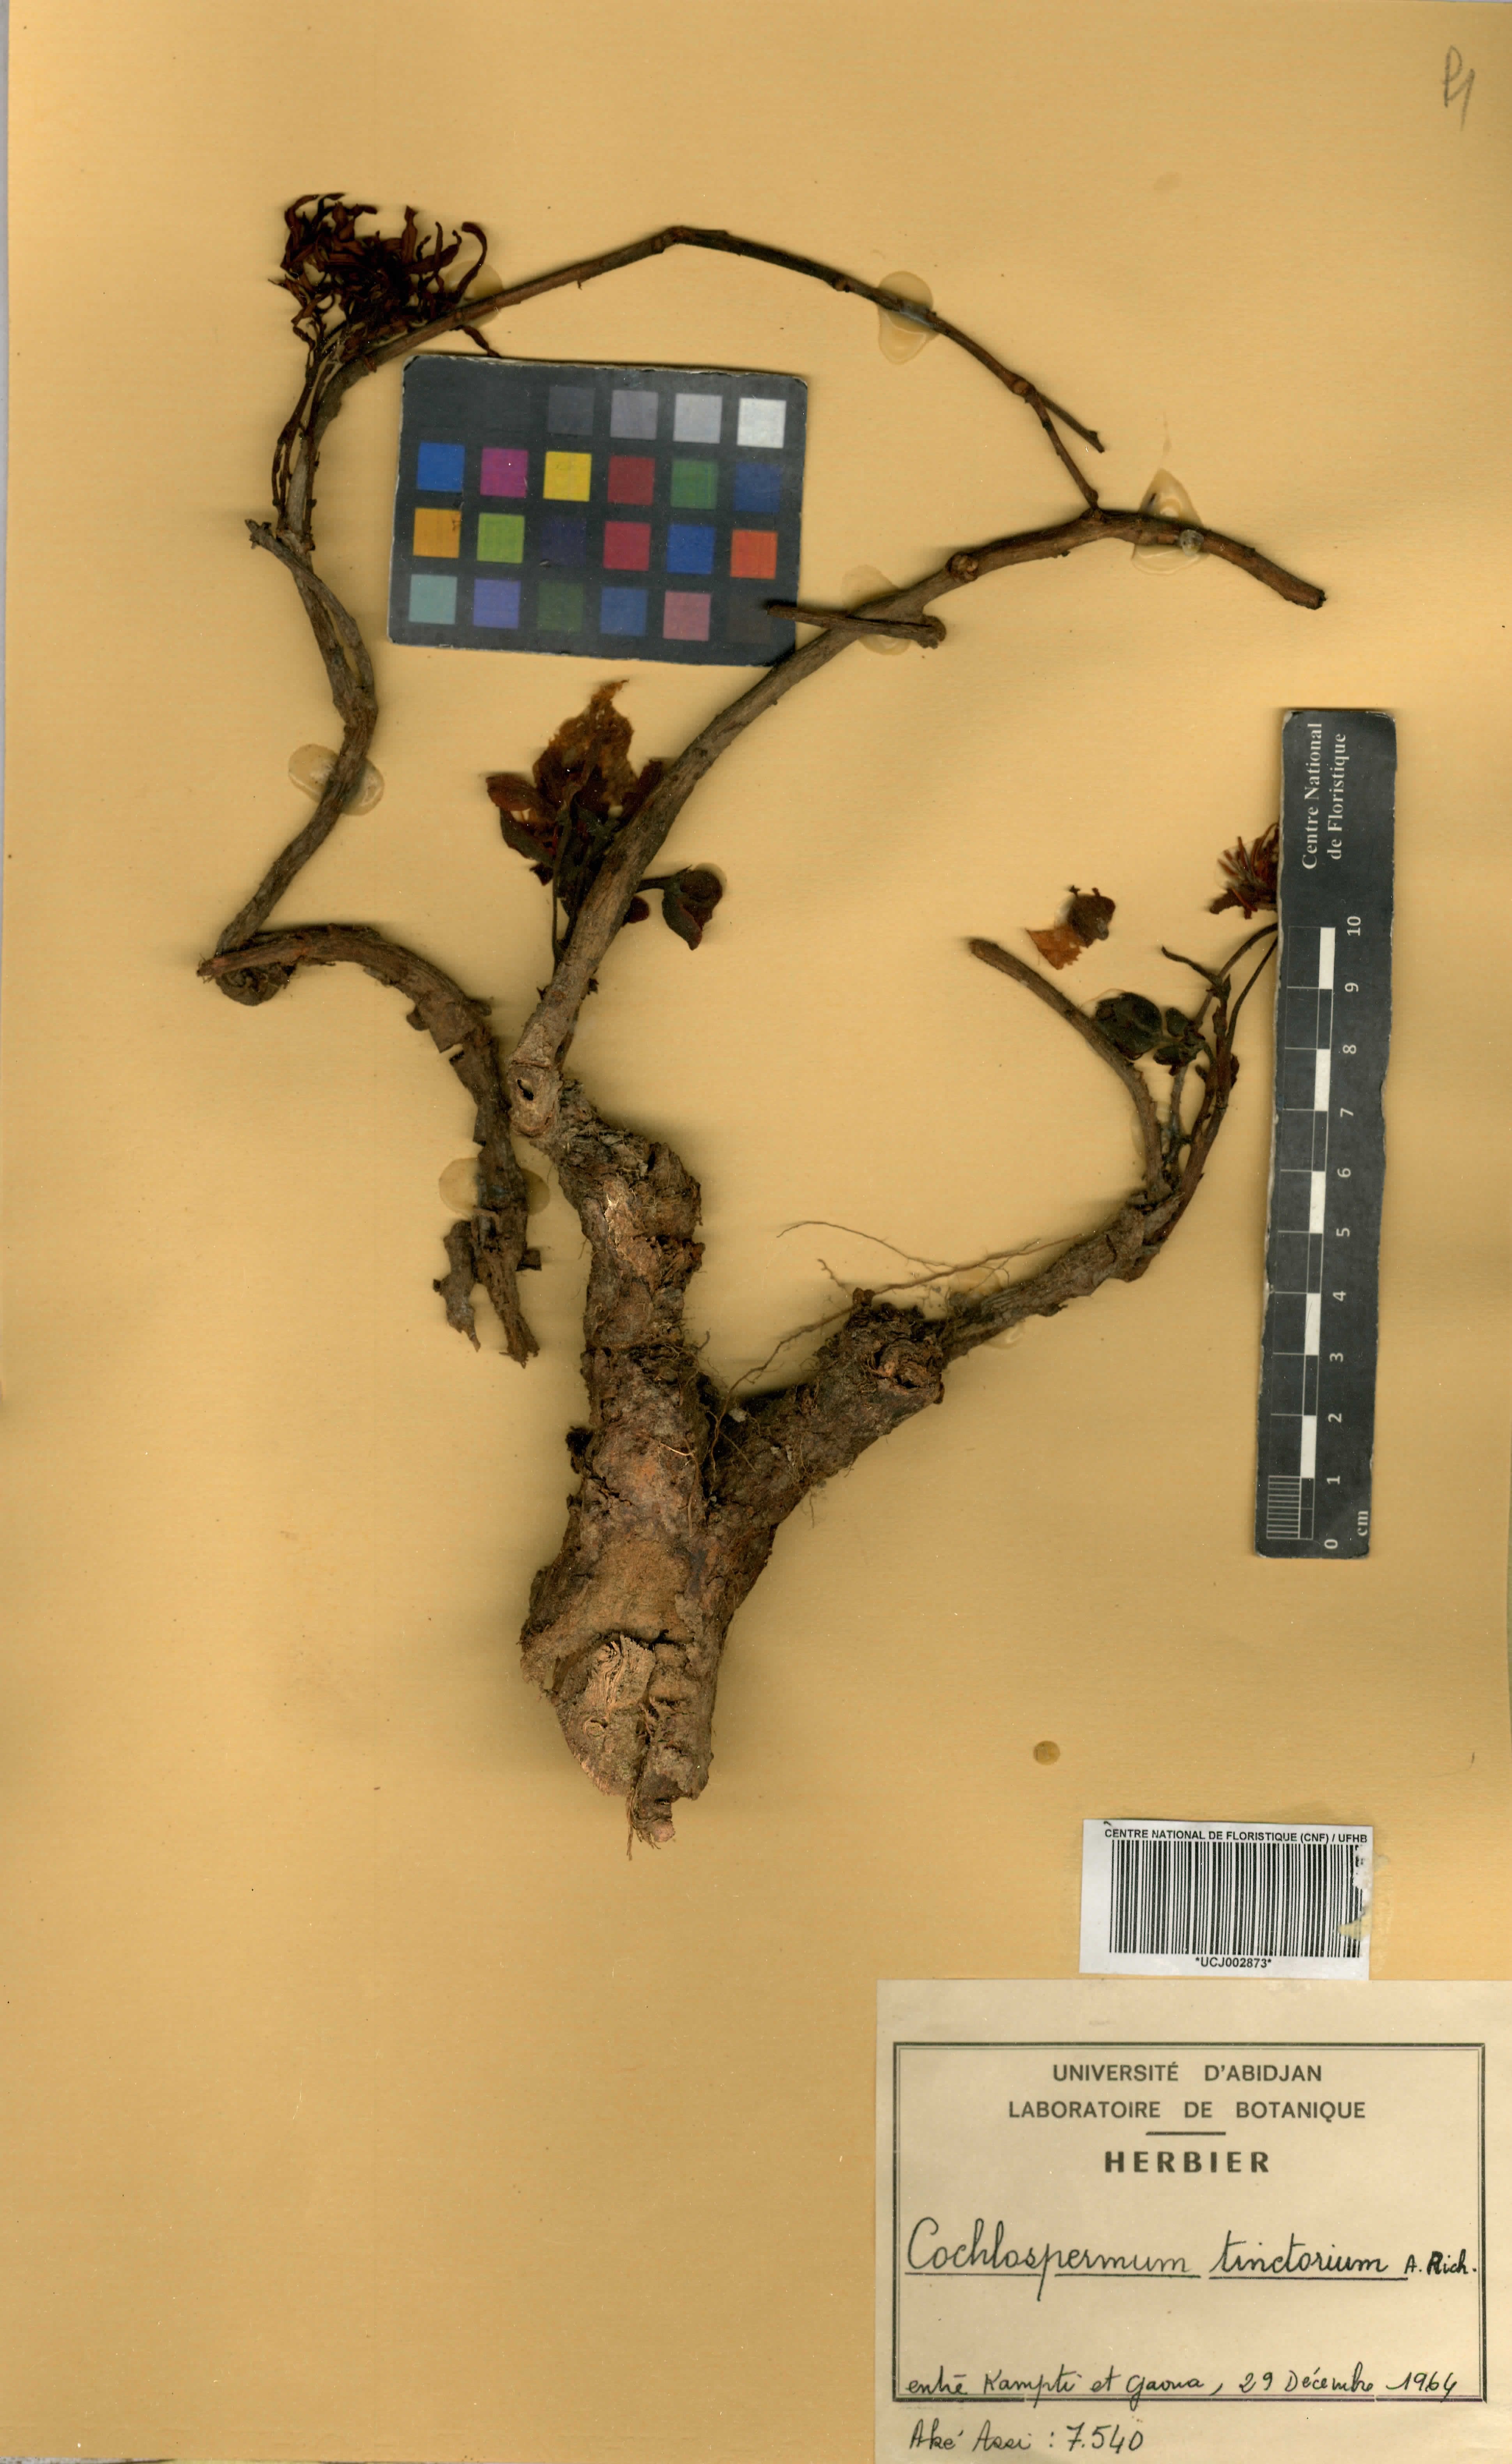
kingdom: Plantae
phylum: Tracheophyta
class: Magnoliopsida
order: Malvales
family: Cochlospermaceae
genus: Cochlospermum
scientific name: Cochlospermum tinctorium
